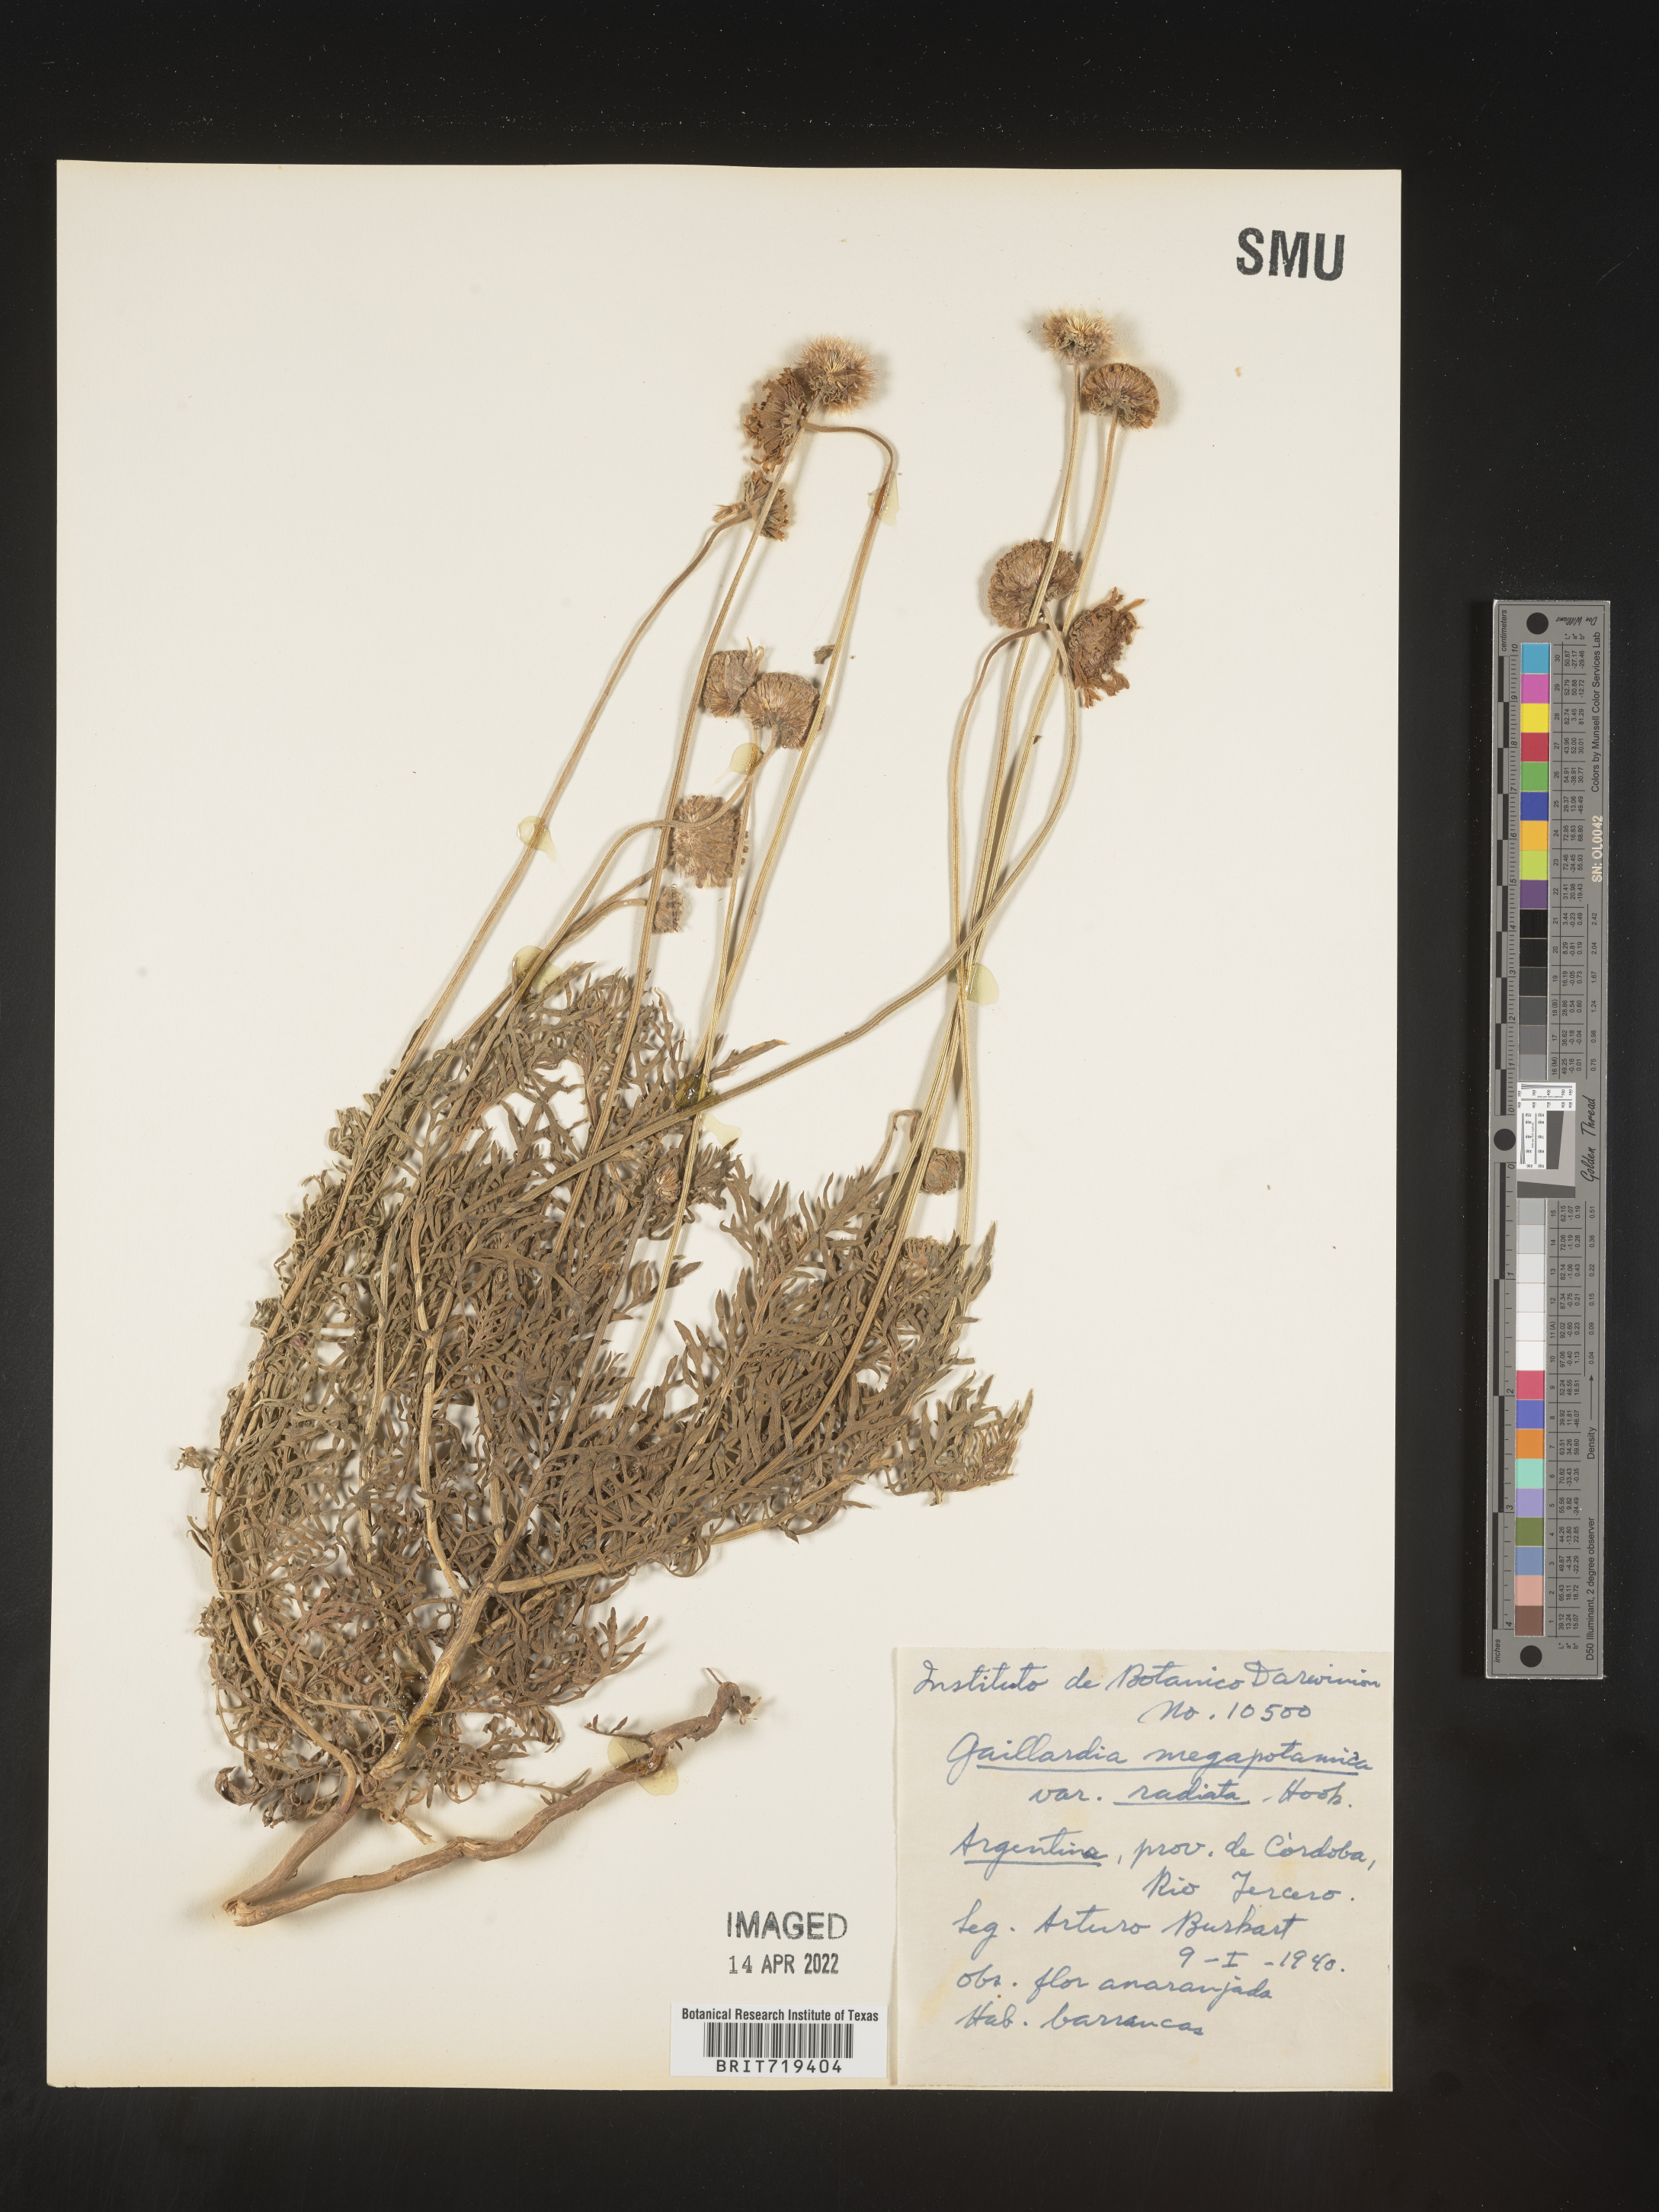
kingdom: Plantae
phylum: Tracheophyta
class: Magnoliopsida
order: Asterales
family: Asteraceae
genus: Gaillardia
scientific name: Gaillardia
